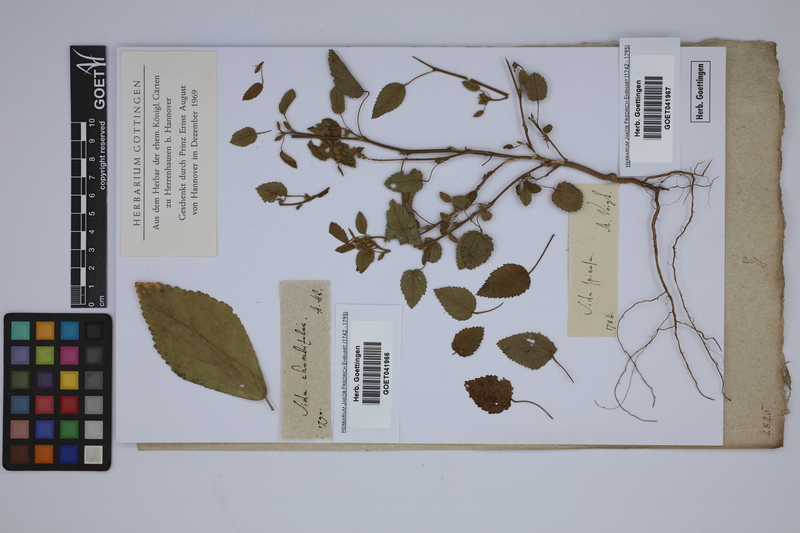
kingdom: Plantae
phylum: Tracheophyta
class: Magnoliopsida
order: Malvales
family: Malvaceae
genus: Sida
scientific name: Sida spinosa
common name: Prickly fanpetals
